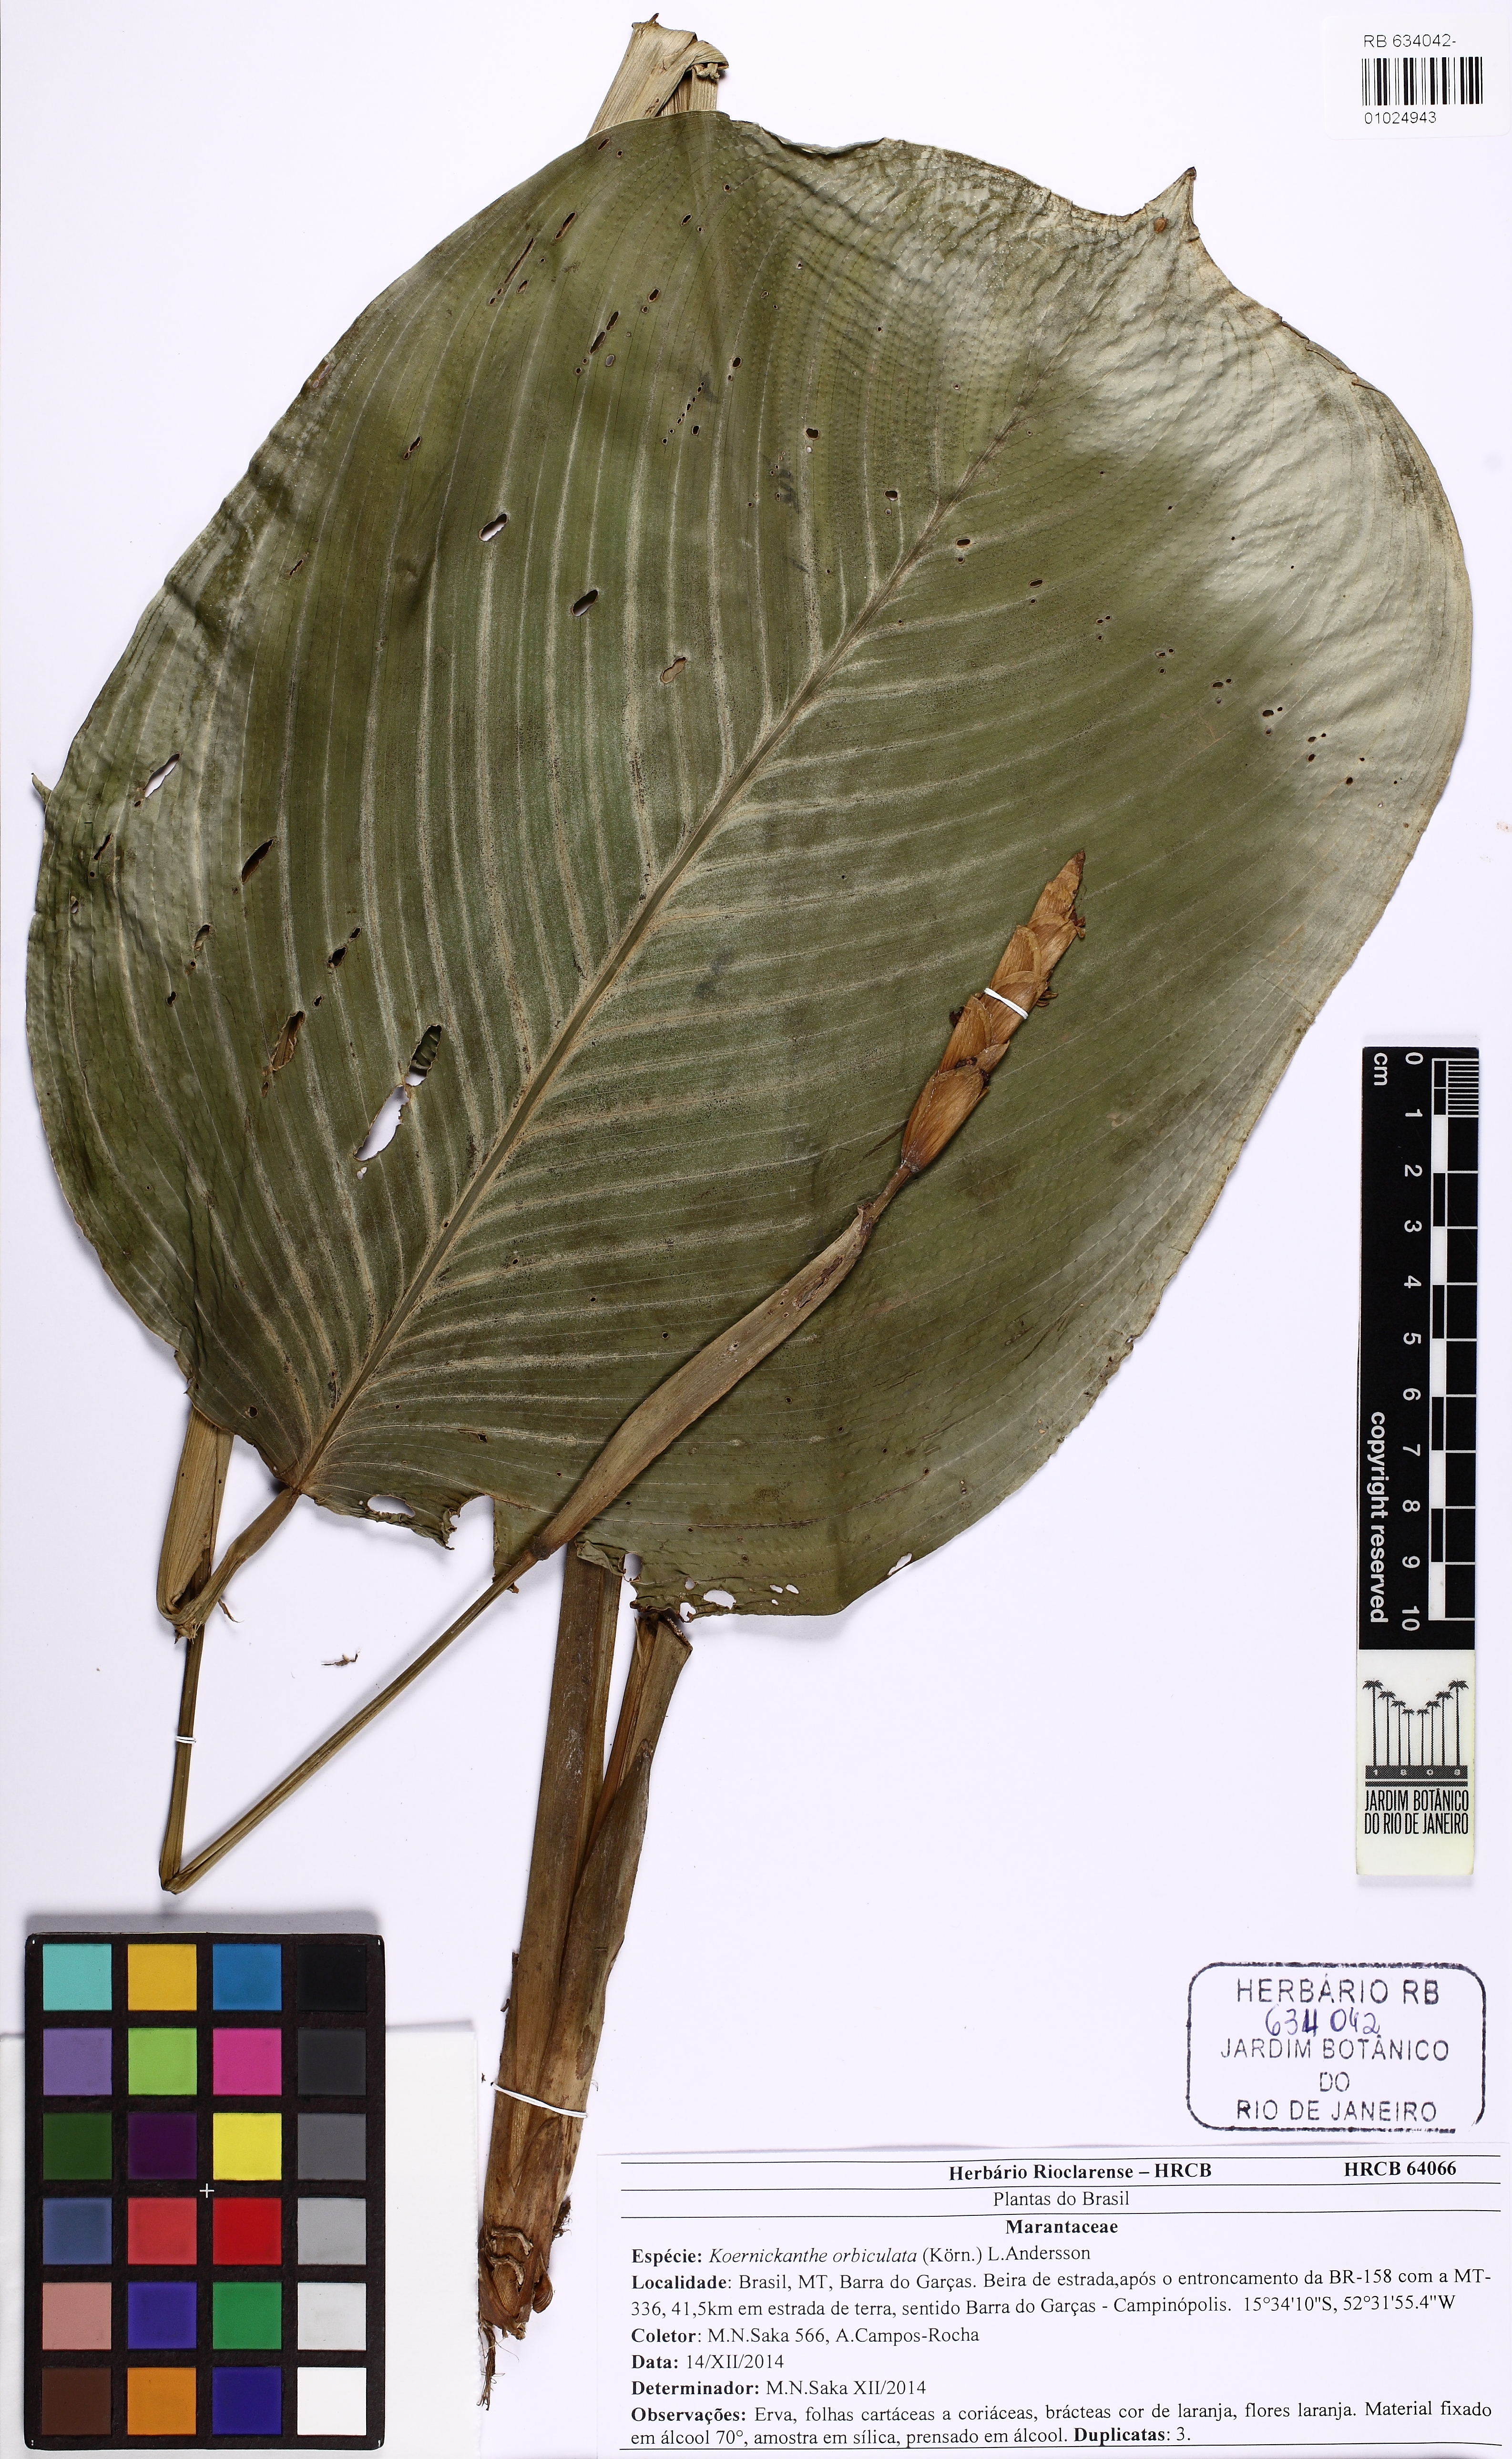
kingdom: Plantae
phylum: Tracheophyta
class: Liliopsida
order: Zingiberales
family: Marantaceae
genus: Koernickanthe
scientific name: Koernickanthe orbiculata
